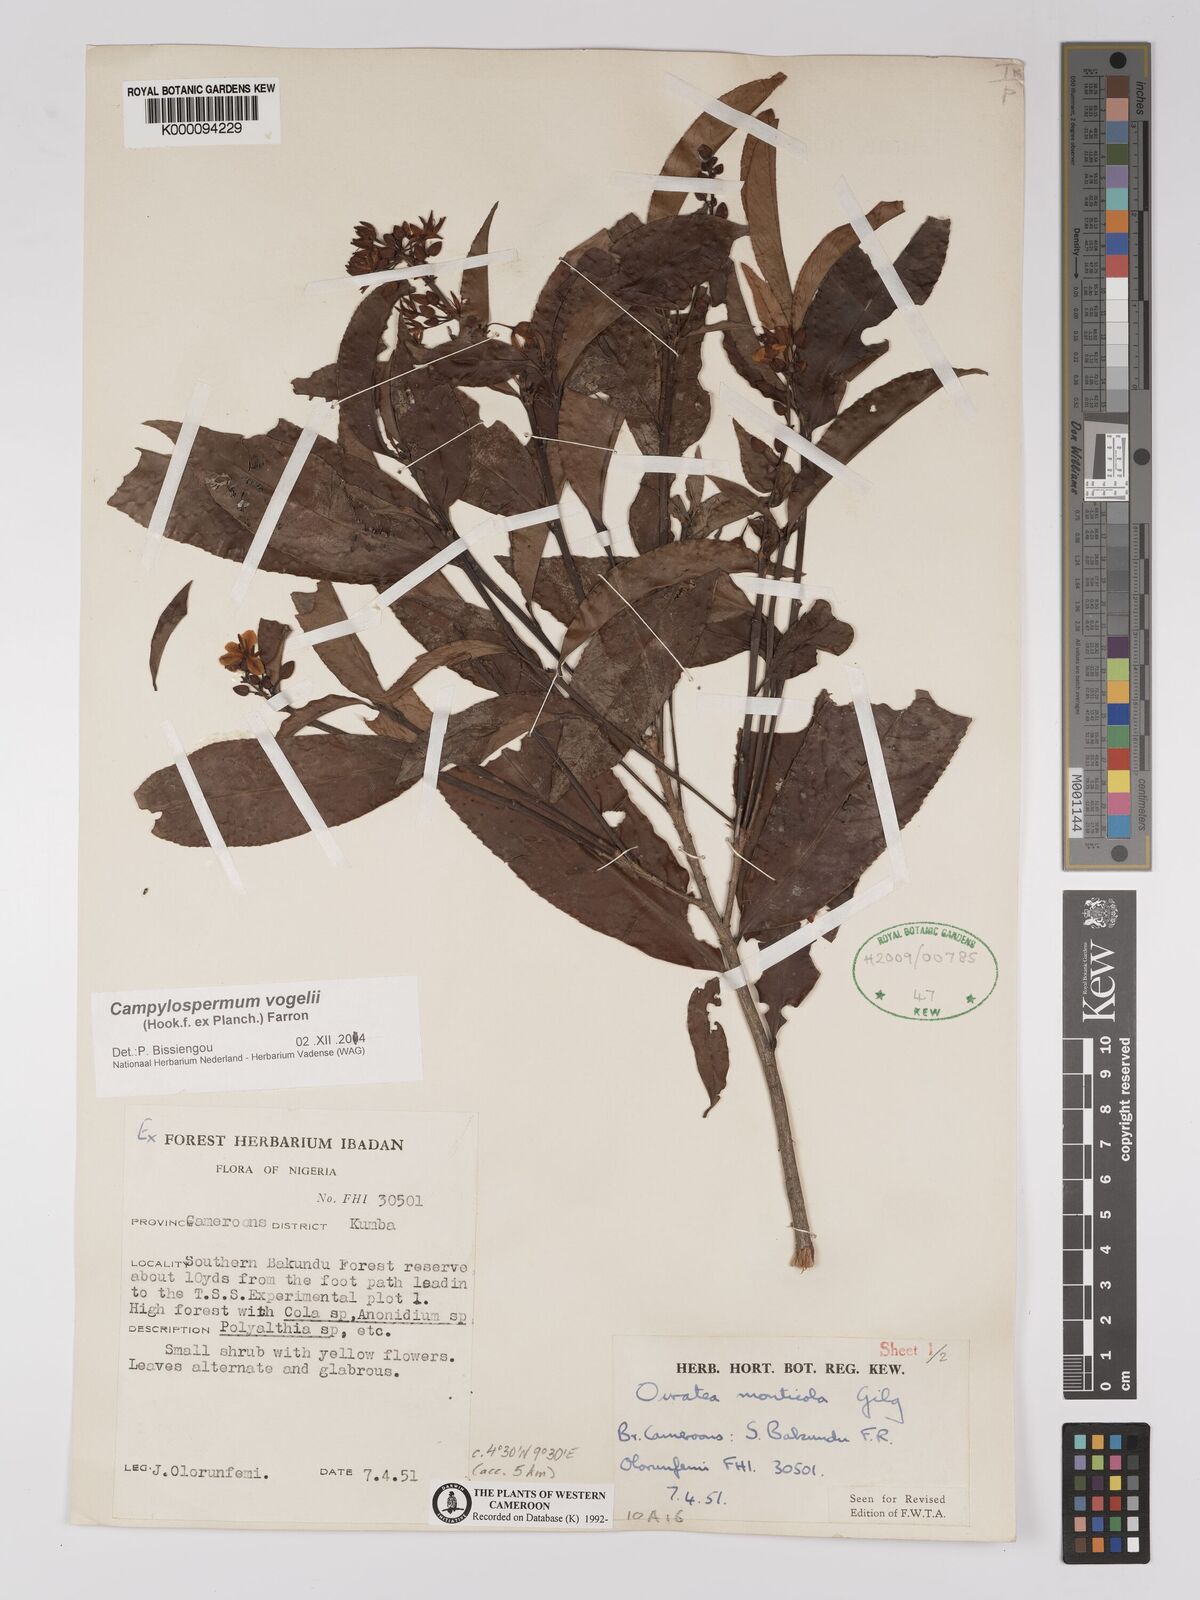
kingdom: Plantae
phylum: Tracheophyta
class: Magnoliopsida
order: Malpighiales
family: Ochnaceae
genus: Campylospermum
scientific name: Campylospermum vogelii
